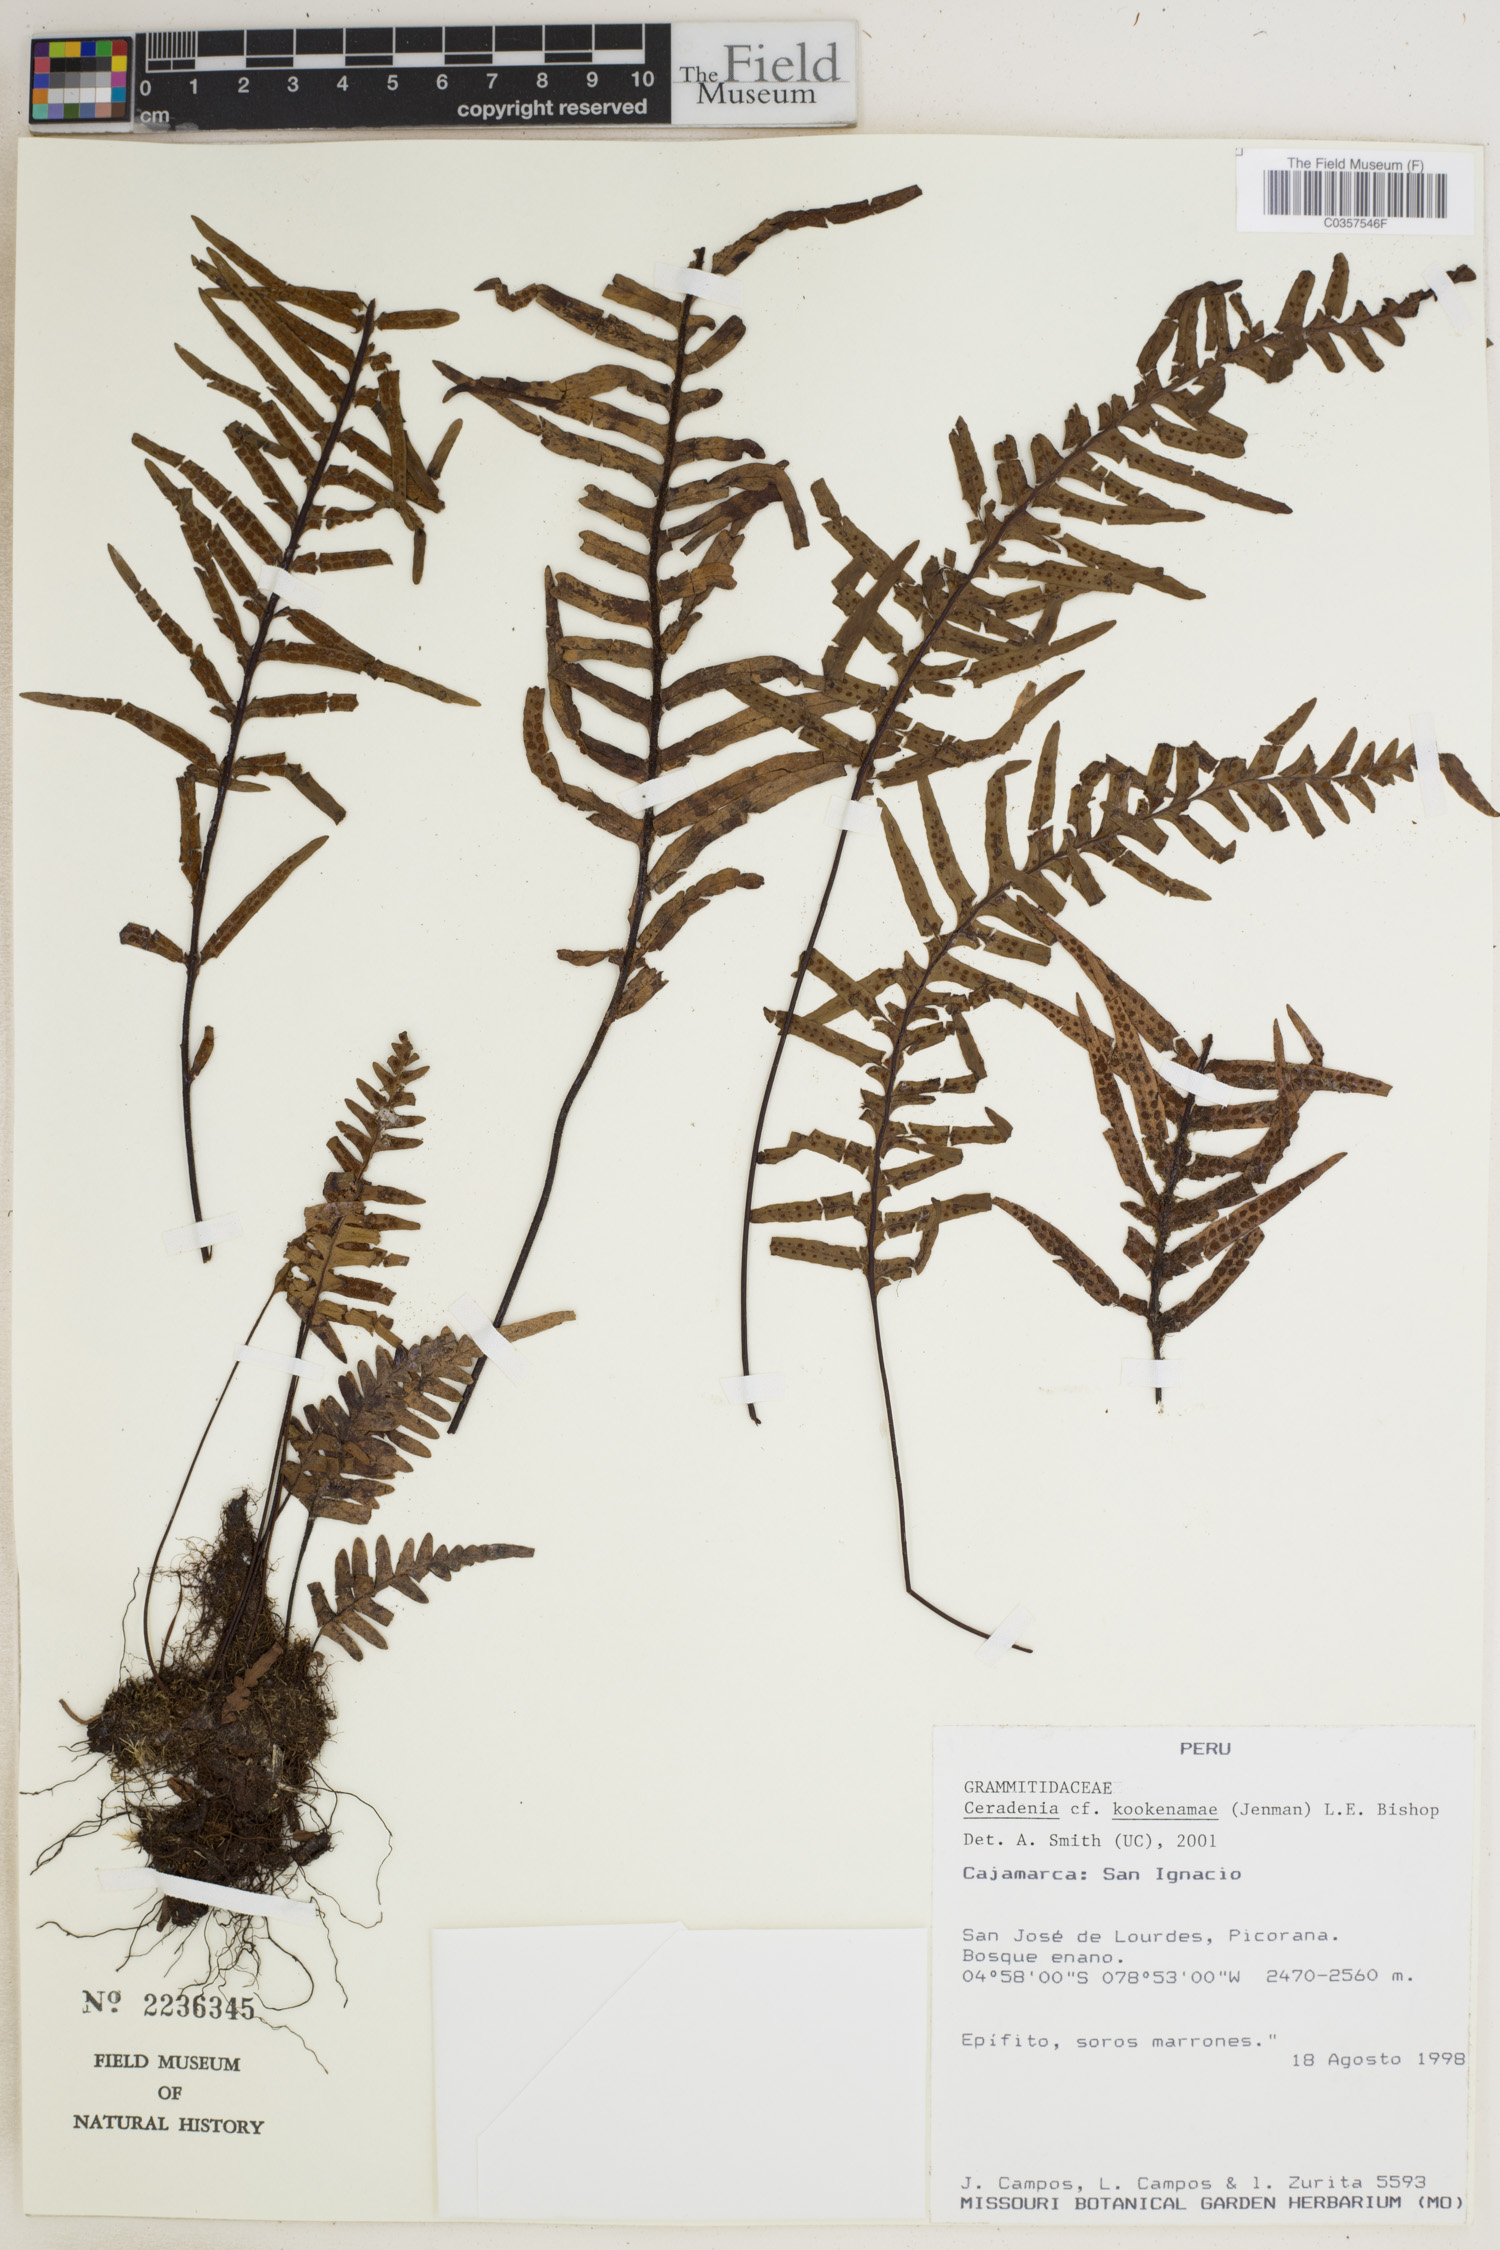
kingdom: Plantae
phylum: Tracheophyta
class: Polypodiopsida
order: Polypodiales
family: Polypodiaceae
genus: Ceradenia
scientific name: Ceradenia kookenamae
